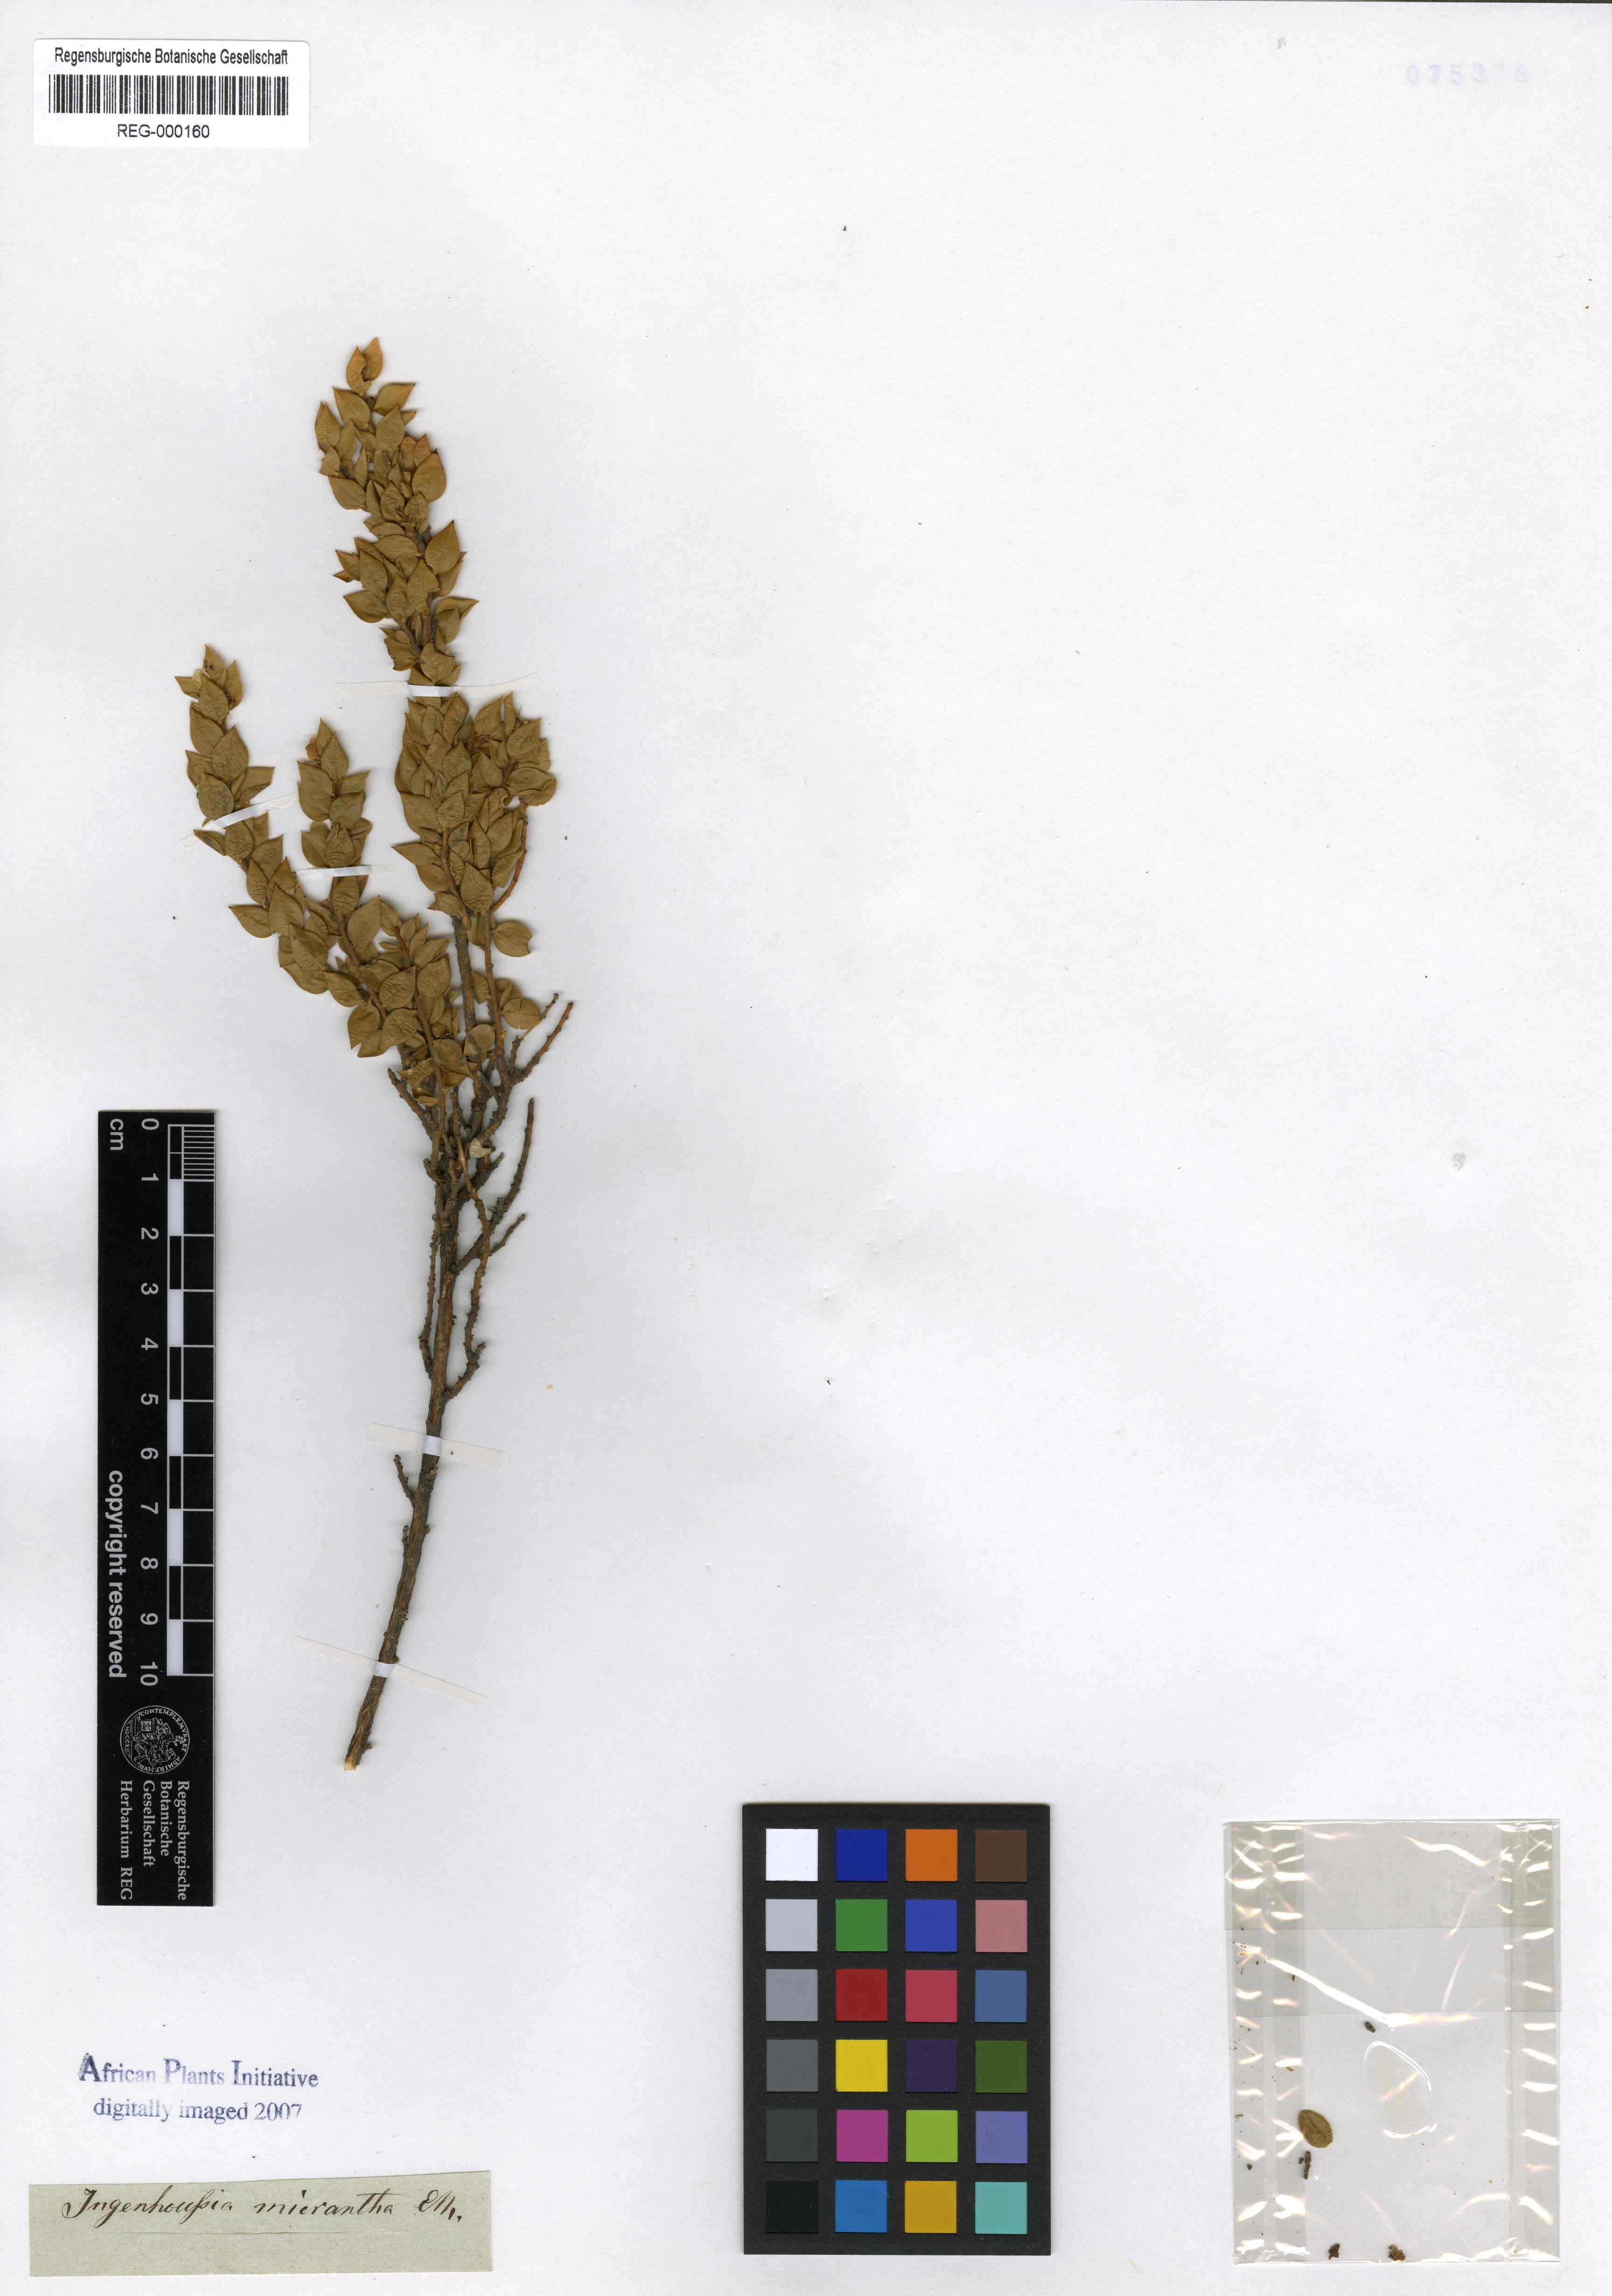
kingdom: Plantae
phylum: Tracheophyta
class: Magnoliopsida
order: Fabales
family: Fabaceae
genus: Amphithalea
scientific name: Amphithalea micrantha
